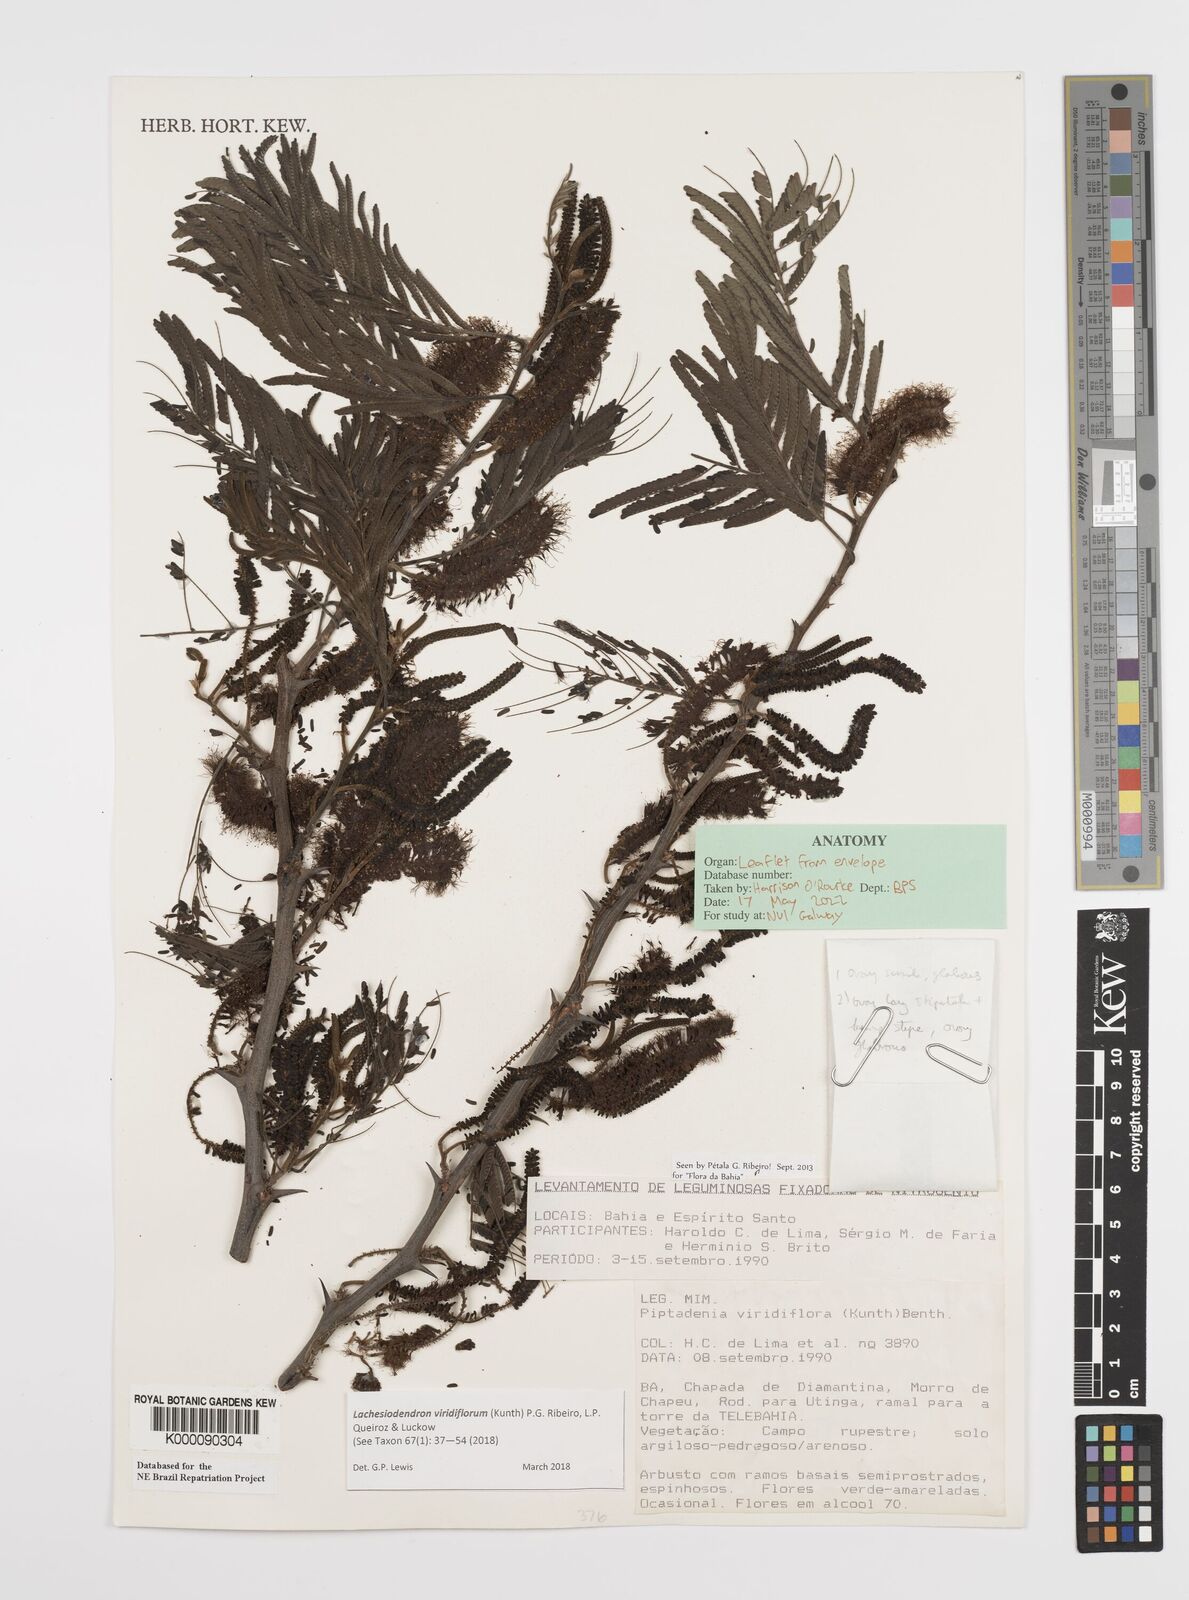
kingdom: Plantae
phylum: Tracheophyta
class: Magnoliopsida
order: Fabales
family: Fabaceae
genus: Lachesiodendron
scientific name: Lachesiodendron viridiflorum
